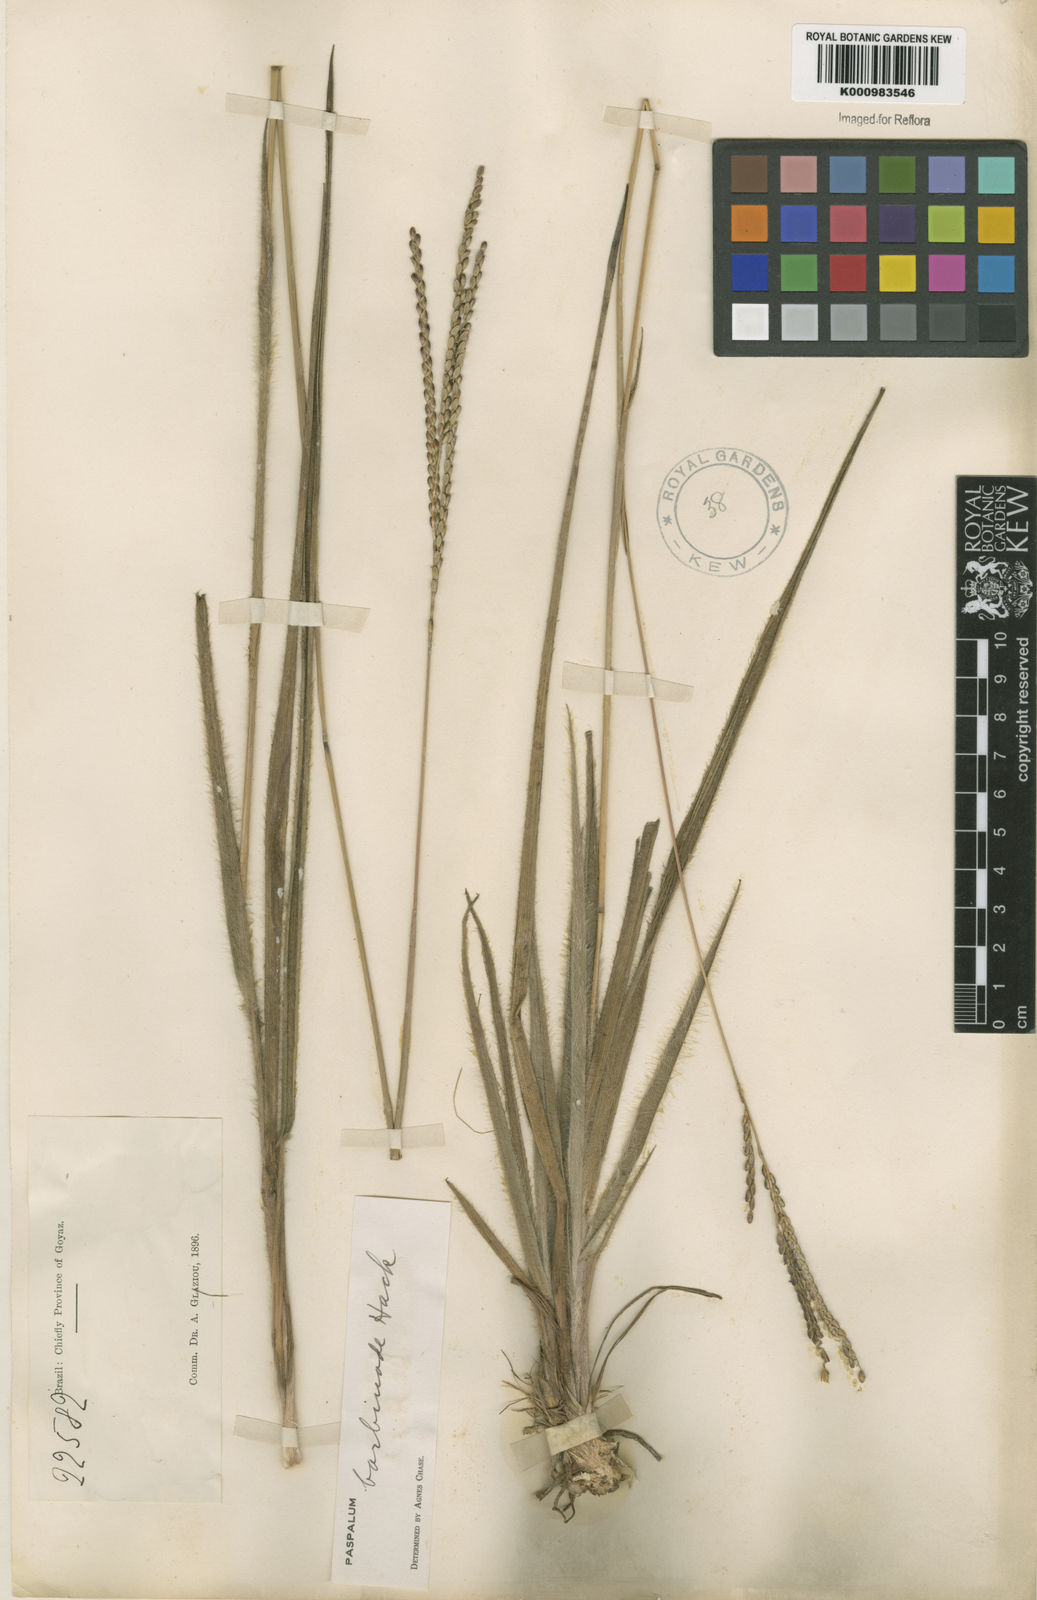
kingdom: Plantae
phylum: Tracheophyta
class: Liliopsida
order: Poales
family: Poaceae
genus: Paspalum
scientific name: Paspalum barbinode
